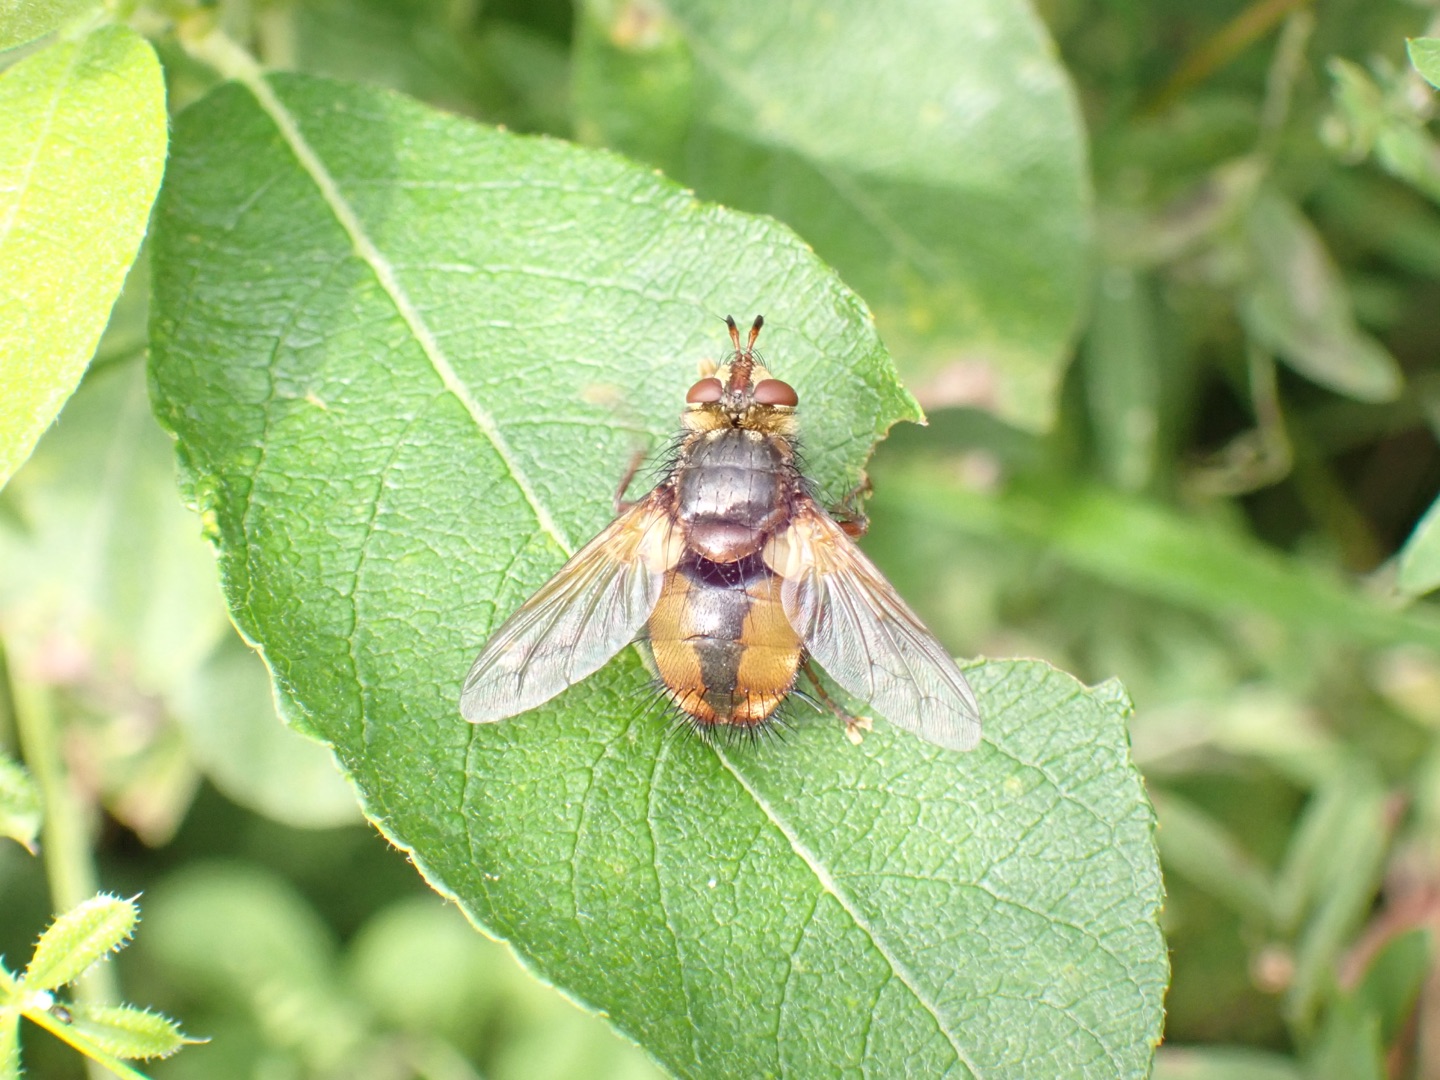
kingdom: Animalia
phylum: Arthropoda
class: Insecta
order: Diptera
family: Tachinidae
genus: Tachina
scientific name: Tachina fera
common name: Mellemfluen oskar
